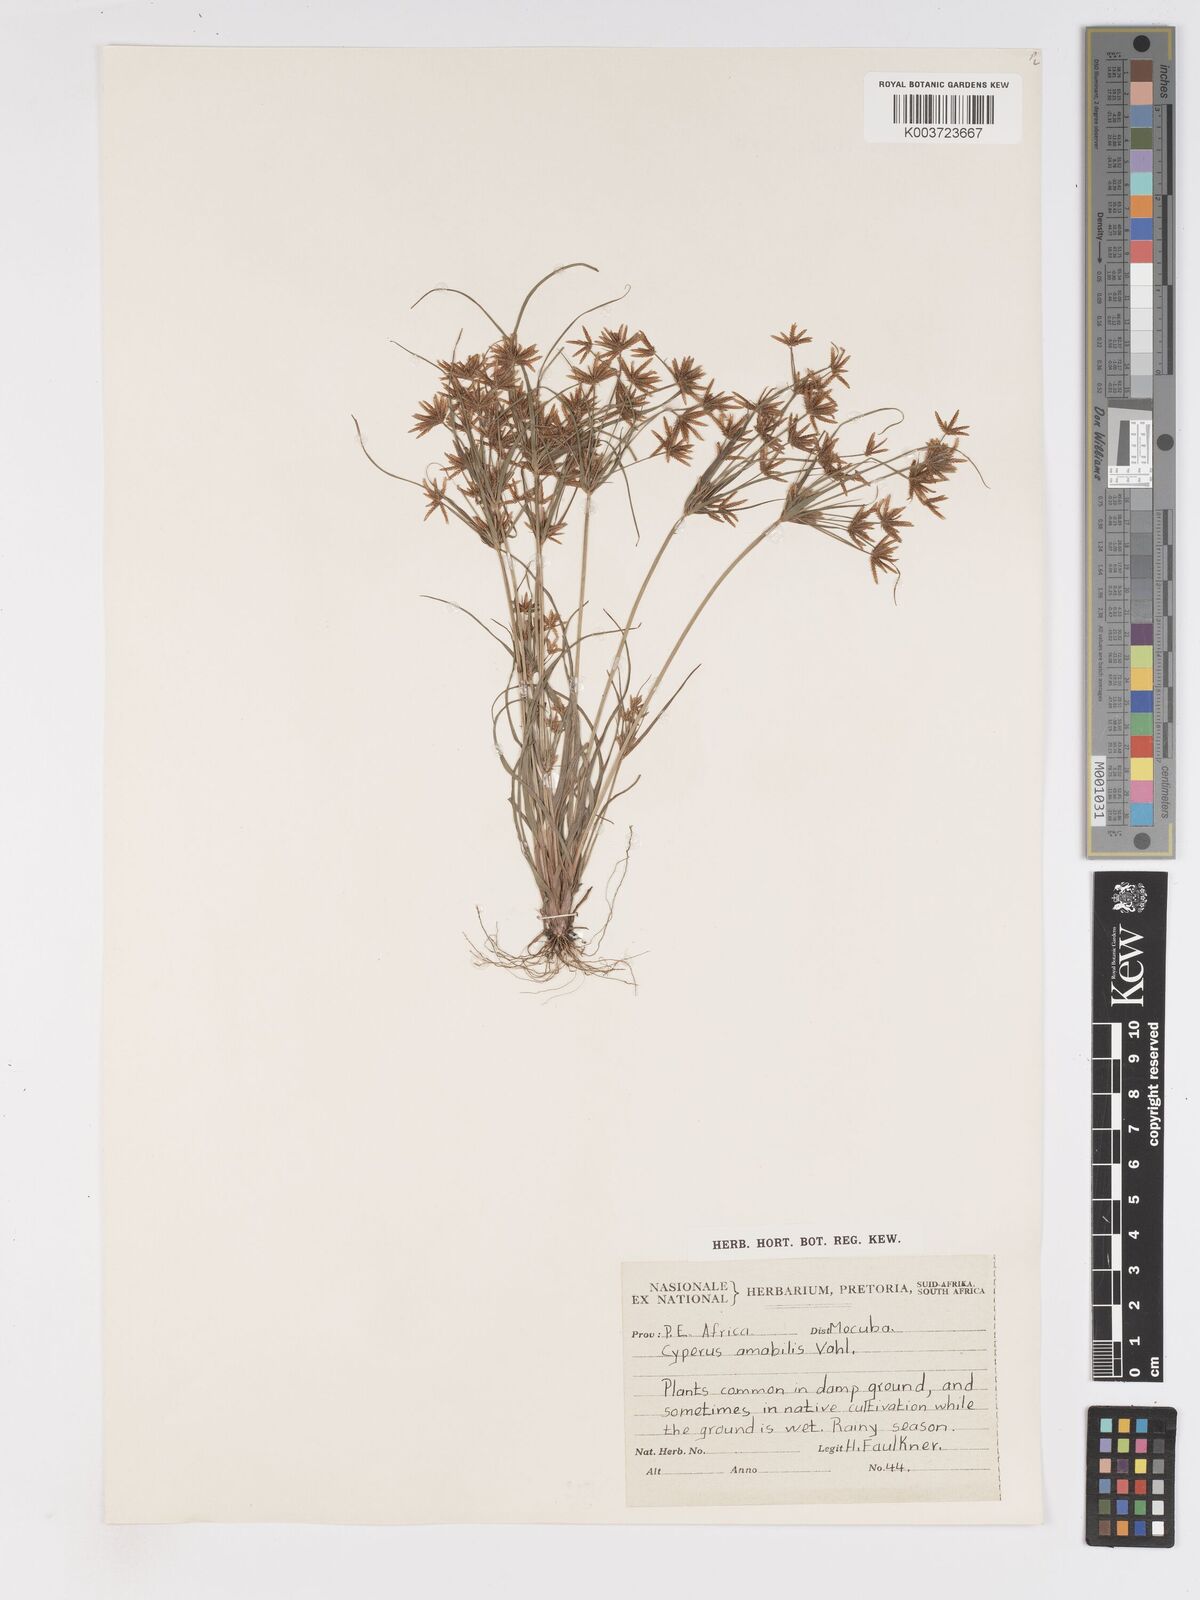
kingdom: Plantae
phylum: Tracheophyta
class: Liliopsida
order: Poales
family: Cyperaceae
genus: Cyperus
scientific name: Cyperus amabilis
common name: Foothill flat sedge
